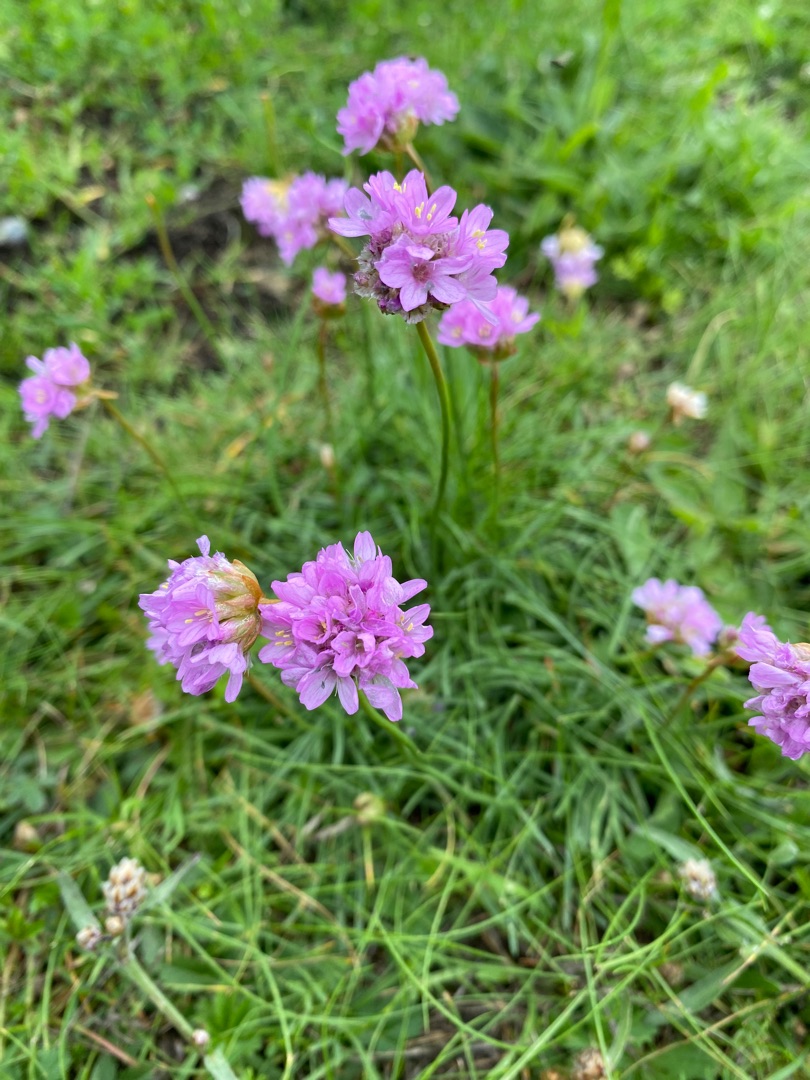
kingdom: Plantae
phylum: Tracheophyta
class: Magnoliopsida
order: Caryophyllales
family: Plumbaginaceae
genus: Armeria
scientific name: Armeria maritima
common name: Engelskgræs
